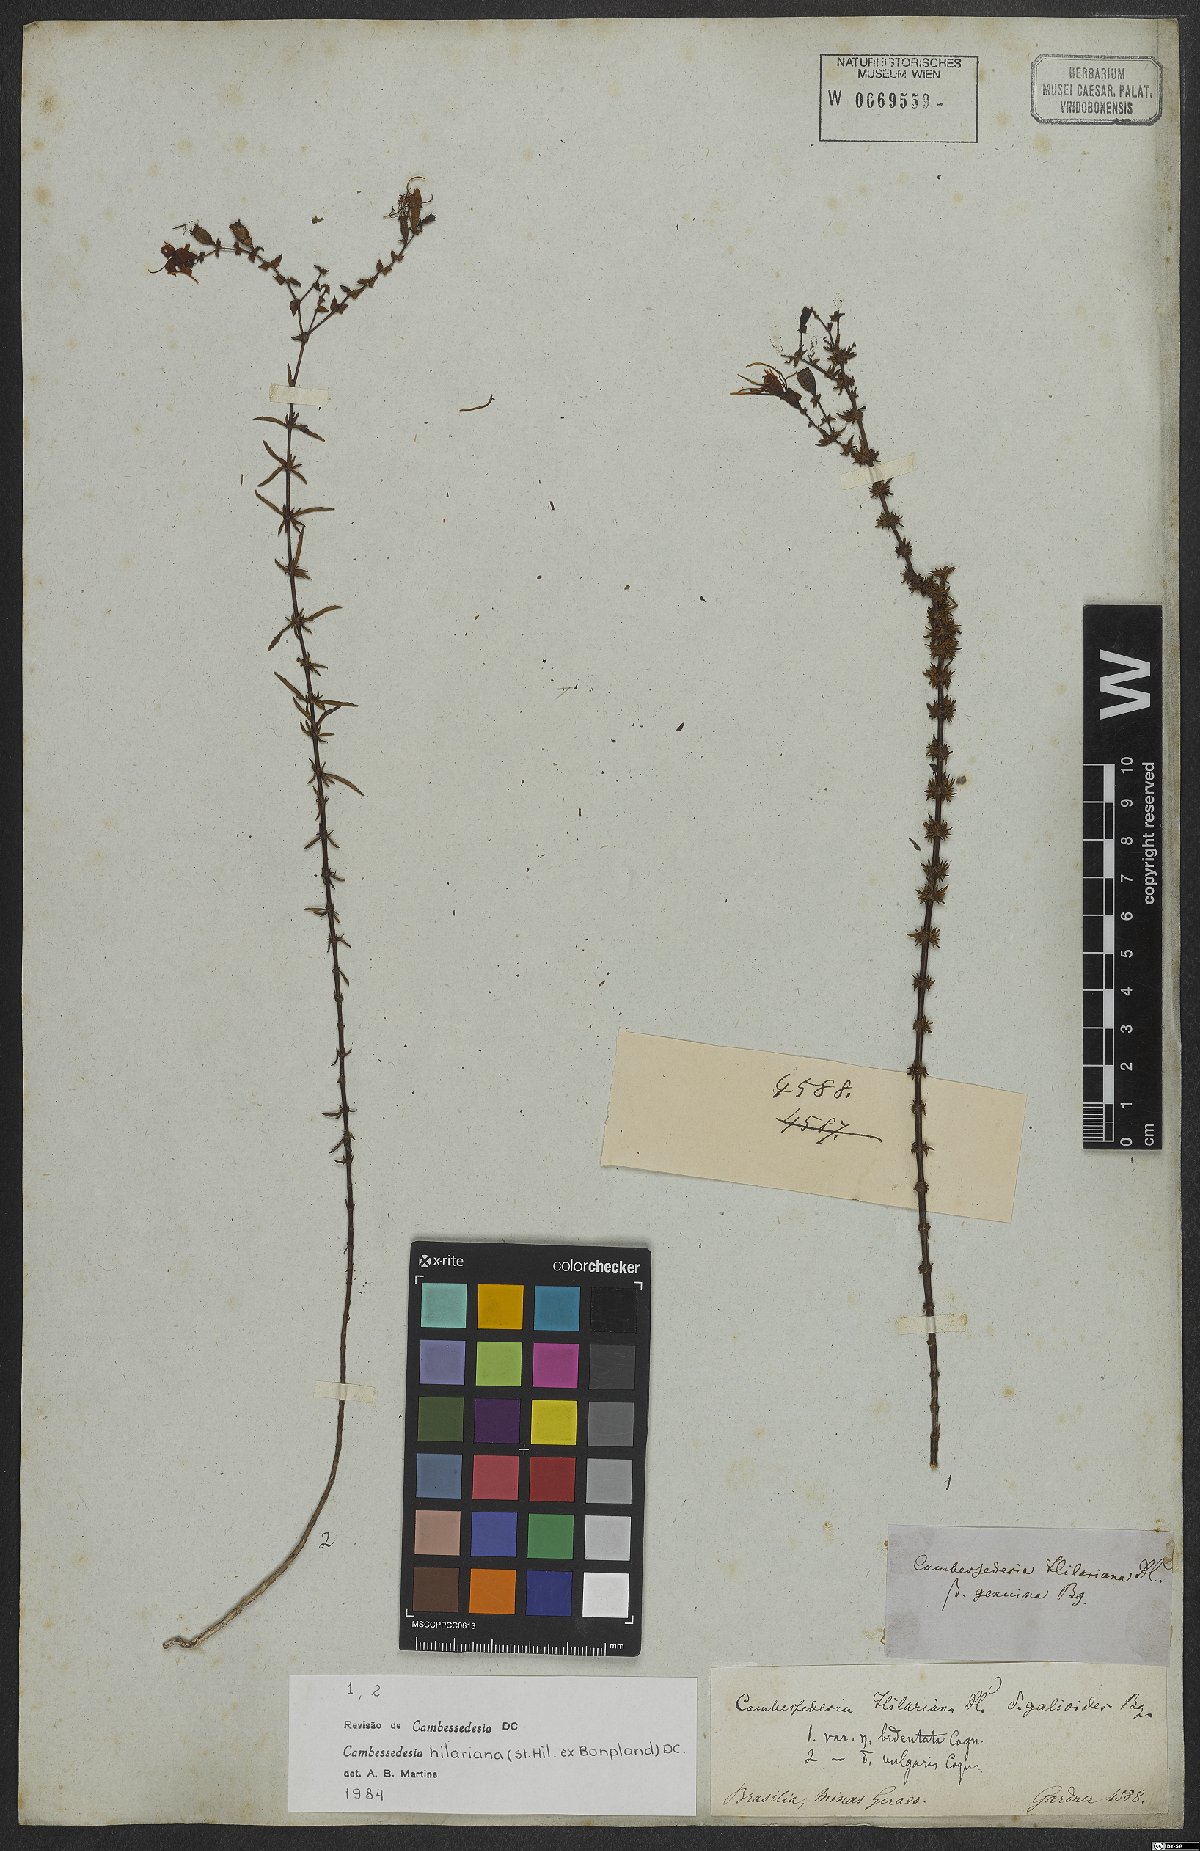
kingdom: Plantae
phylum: Tracheophyta
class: Magnoliopsida
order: Myrtales
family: Melastomataceae
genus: Cambessedesia
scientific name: Cambessedesia hilariana
